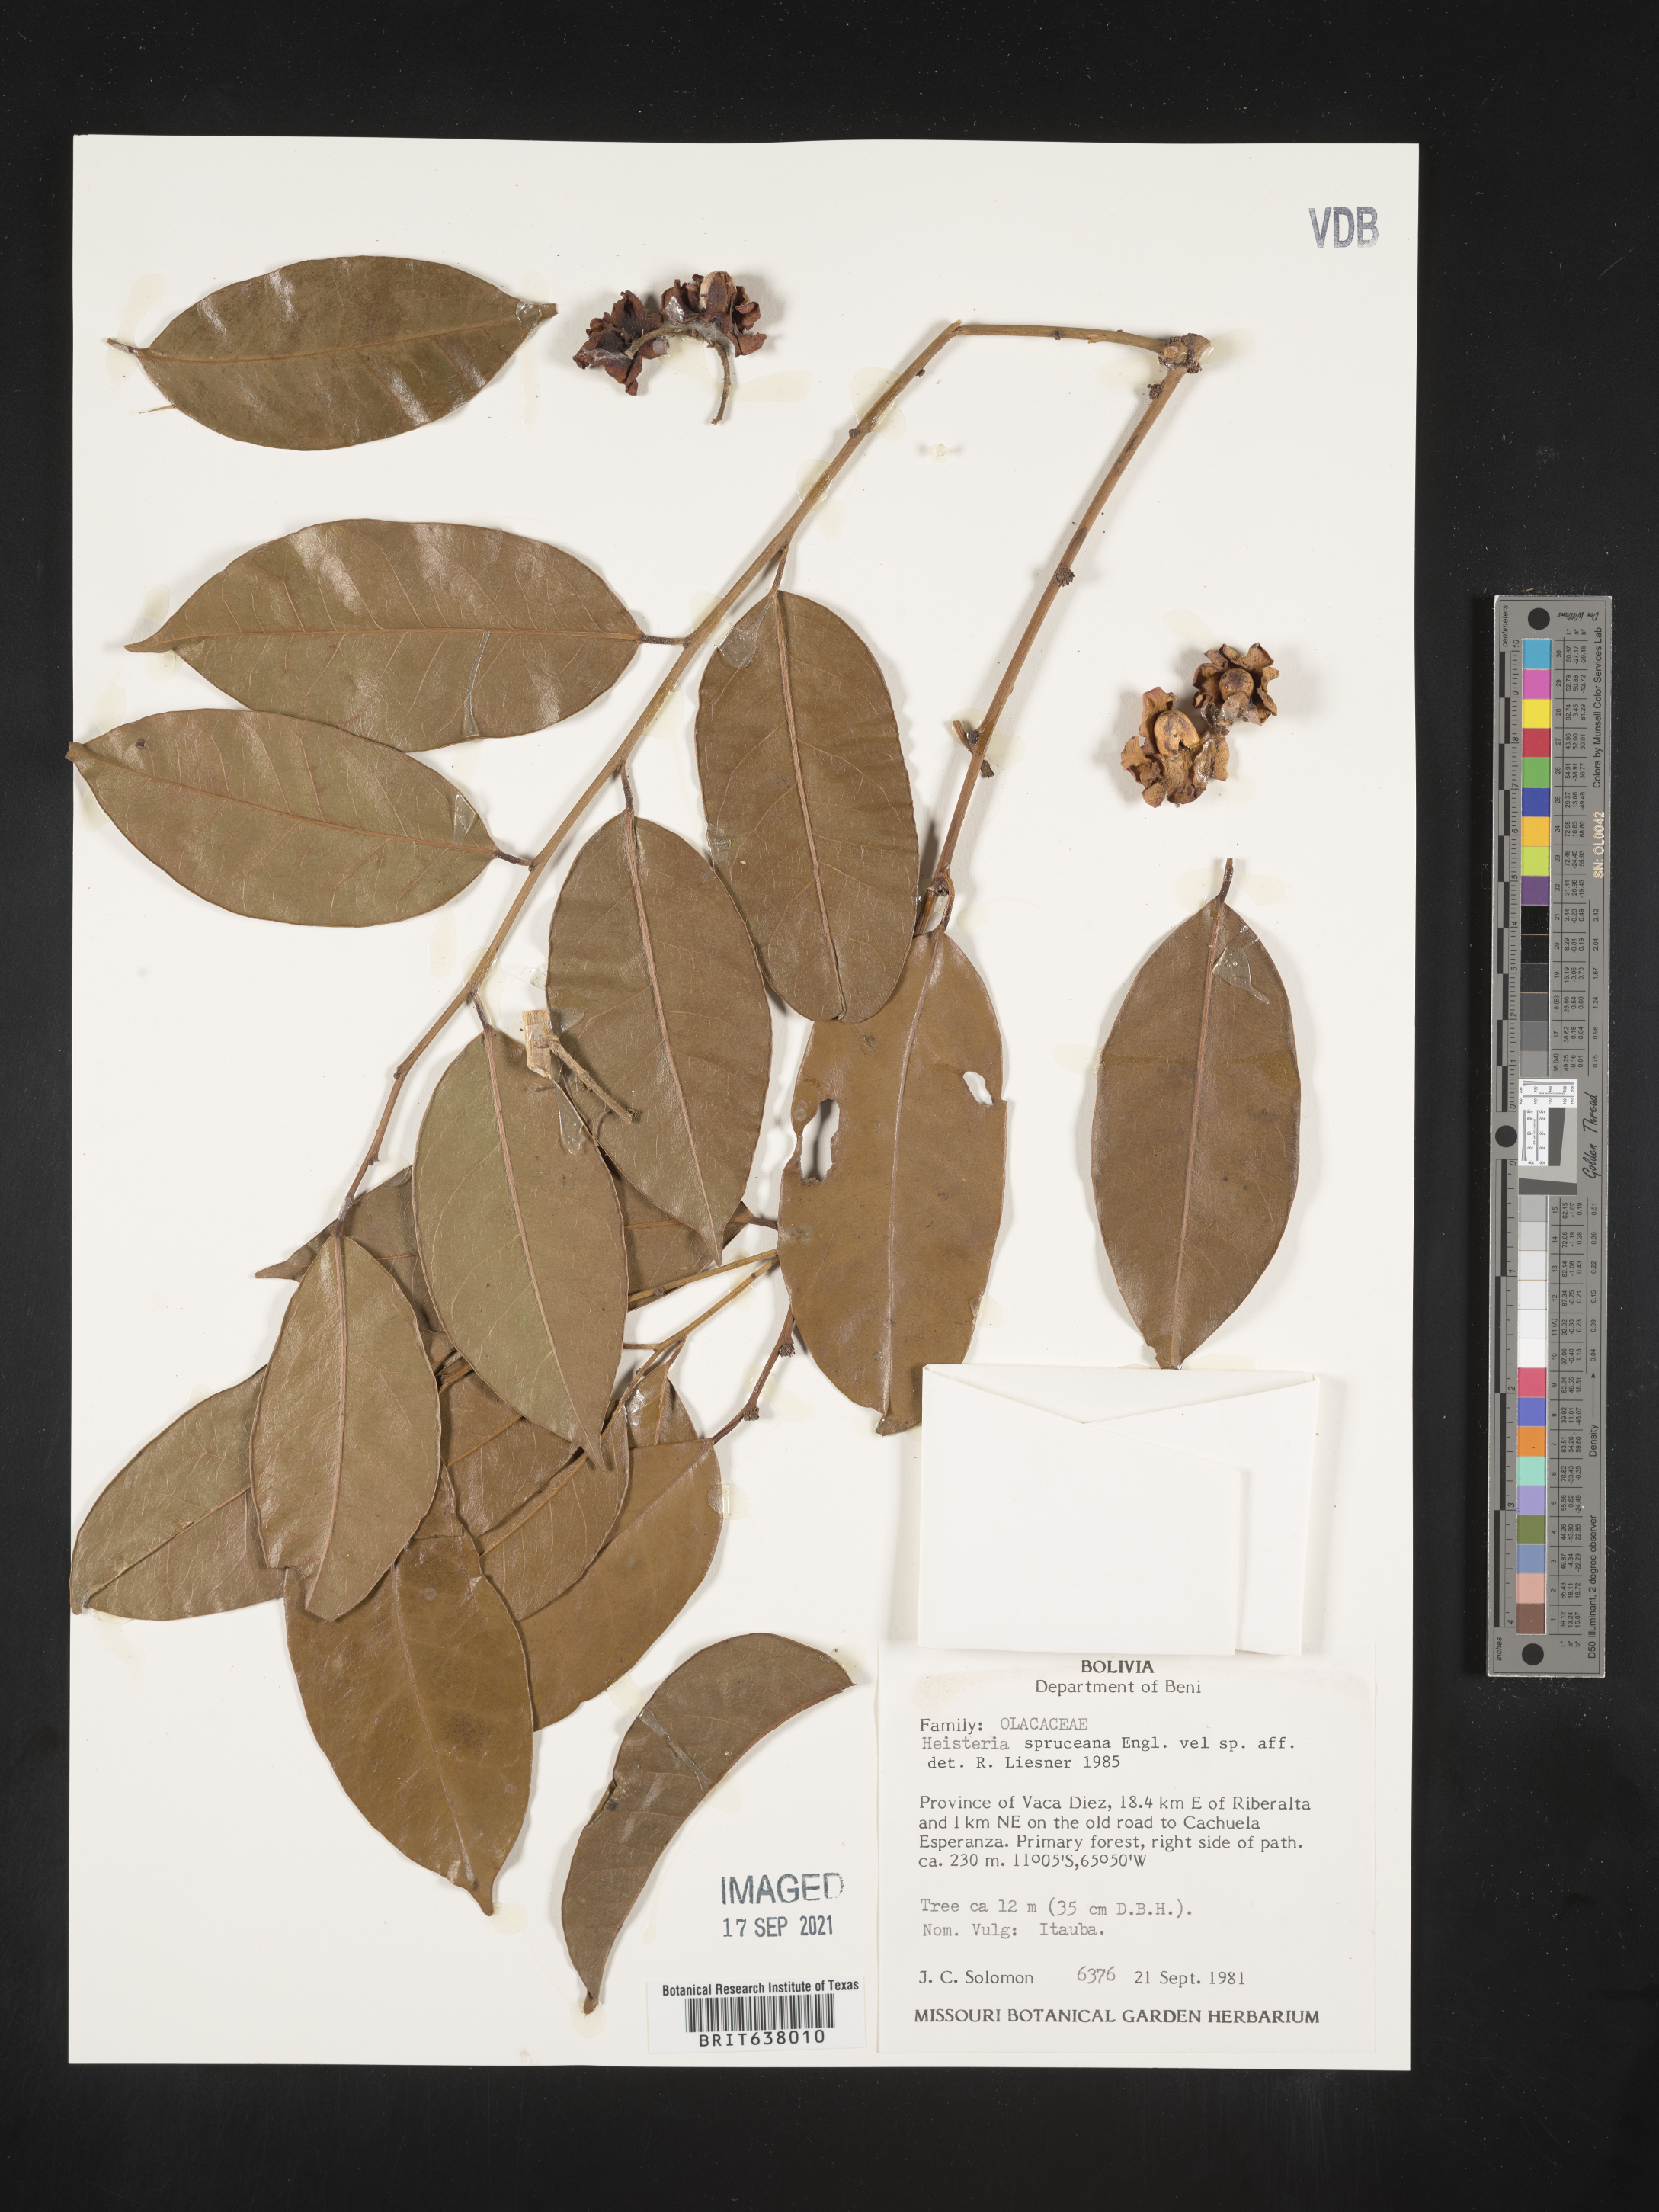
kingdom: Plantae
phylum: Tracheophyta
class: Magnoliopsida
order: Santalales
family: Erythropalaceae
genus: Heisteria
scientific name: Heisteria
